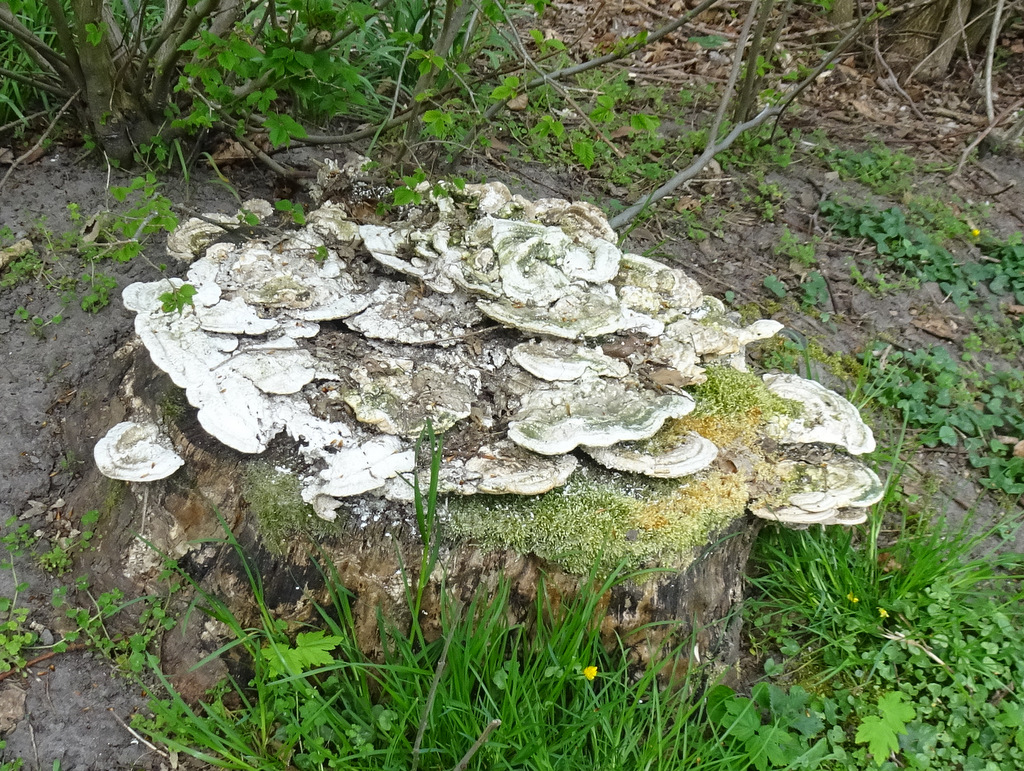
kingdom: Fungi
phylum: Basidiomycota
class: Agaricomycetes
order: Polyporales
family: Polyporaceae
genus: Trametes
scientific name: Trametes gibbosa
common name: puklet læderporesvamp
